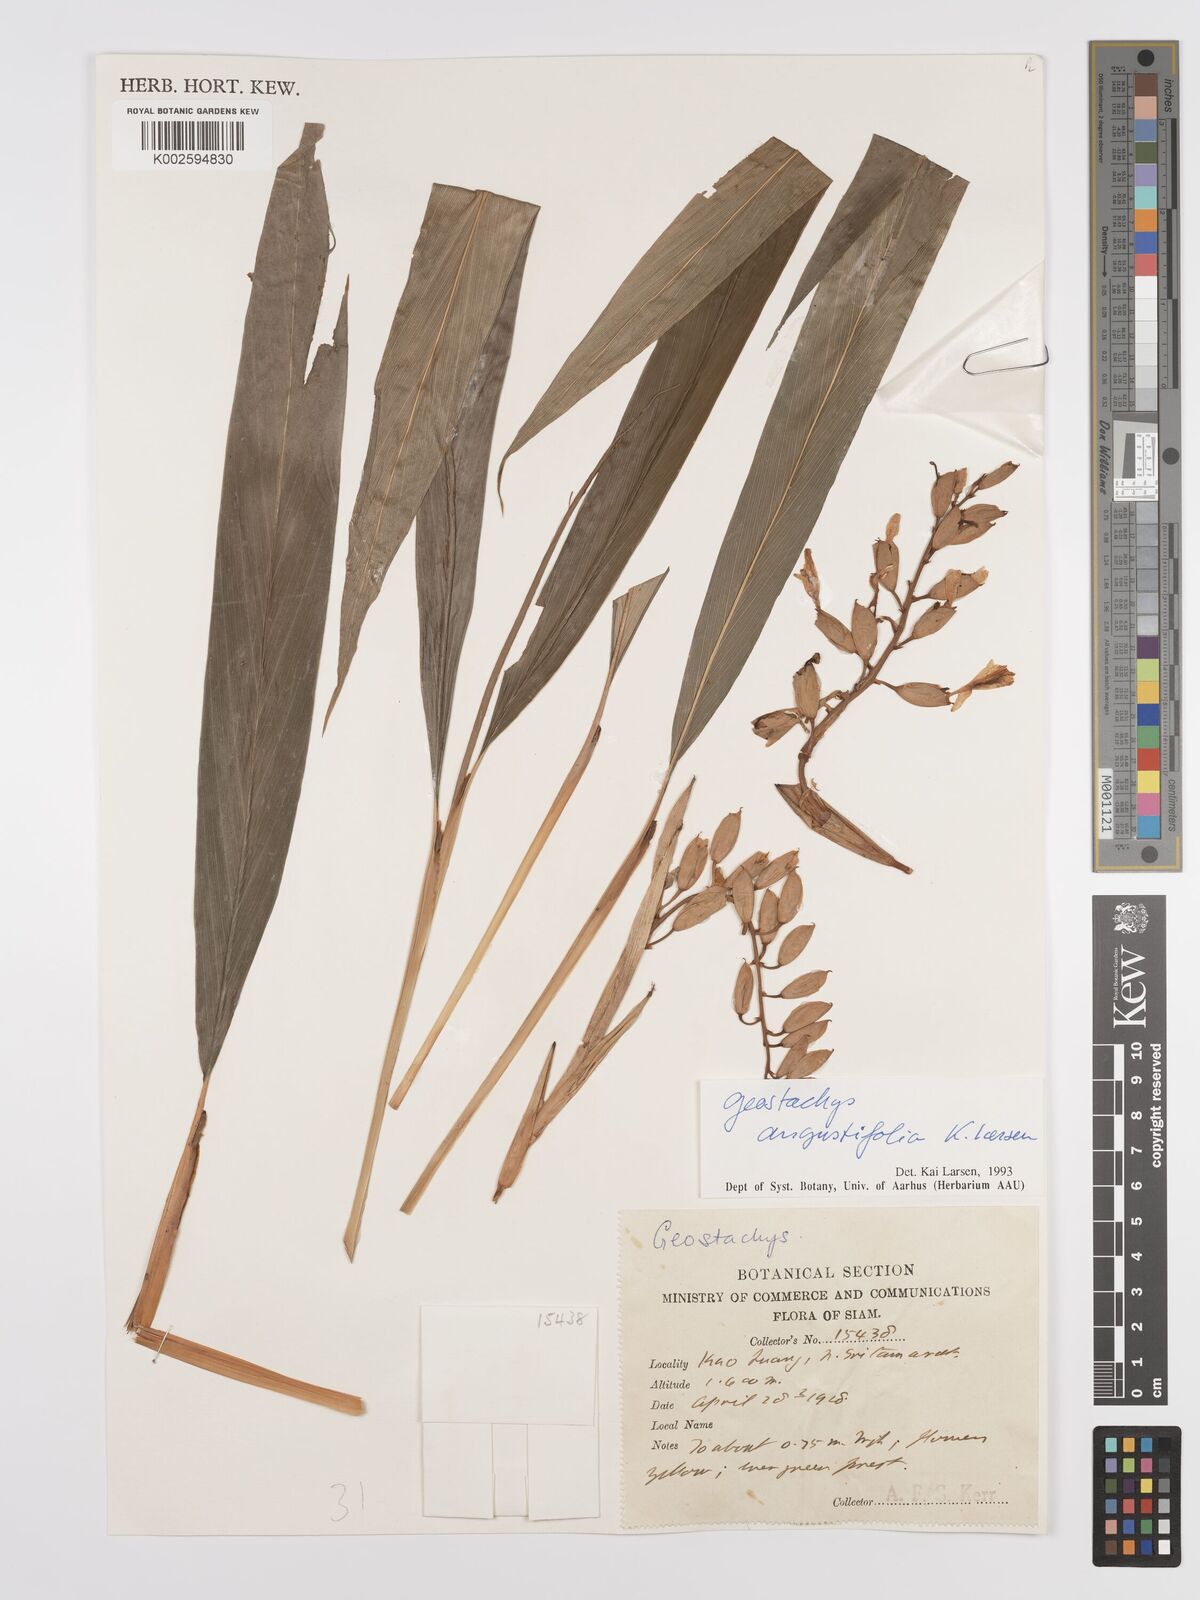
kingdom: Plantae
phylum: Tracheophyta
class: Liliopsida
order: Zingiberales
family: Zingiberaceae
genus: Geostachys
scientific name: Geostachys angustifolia
